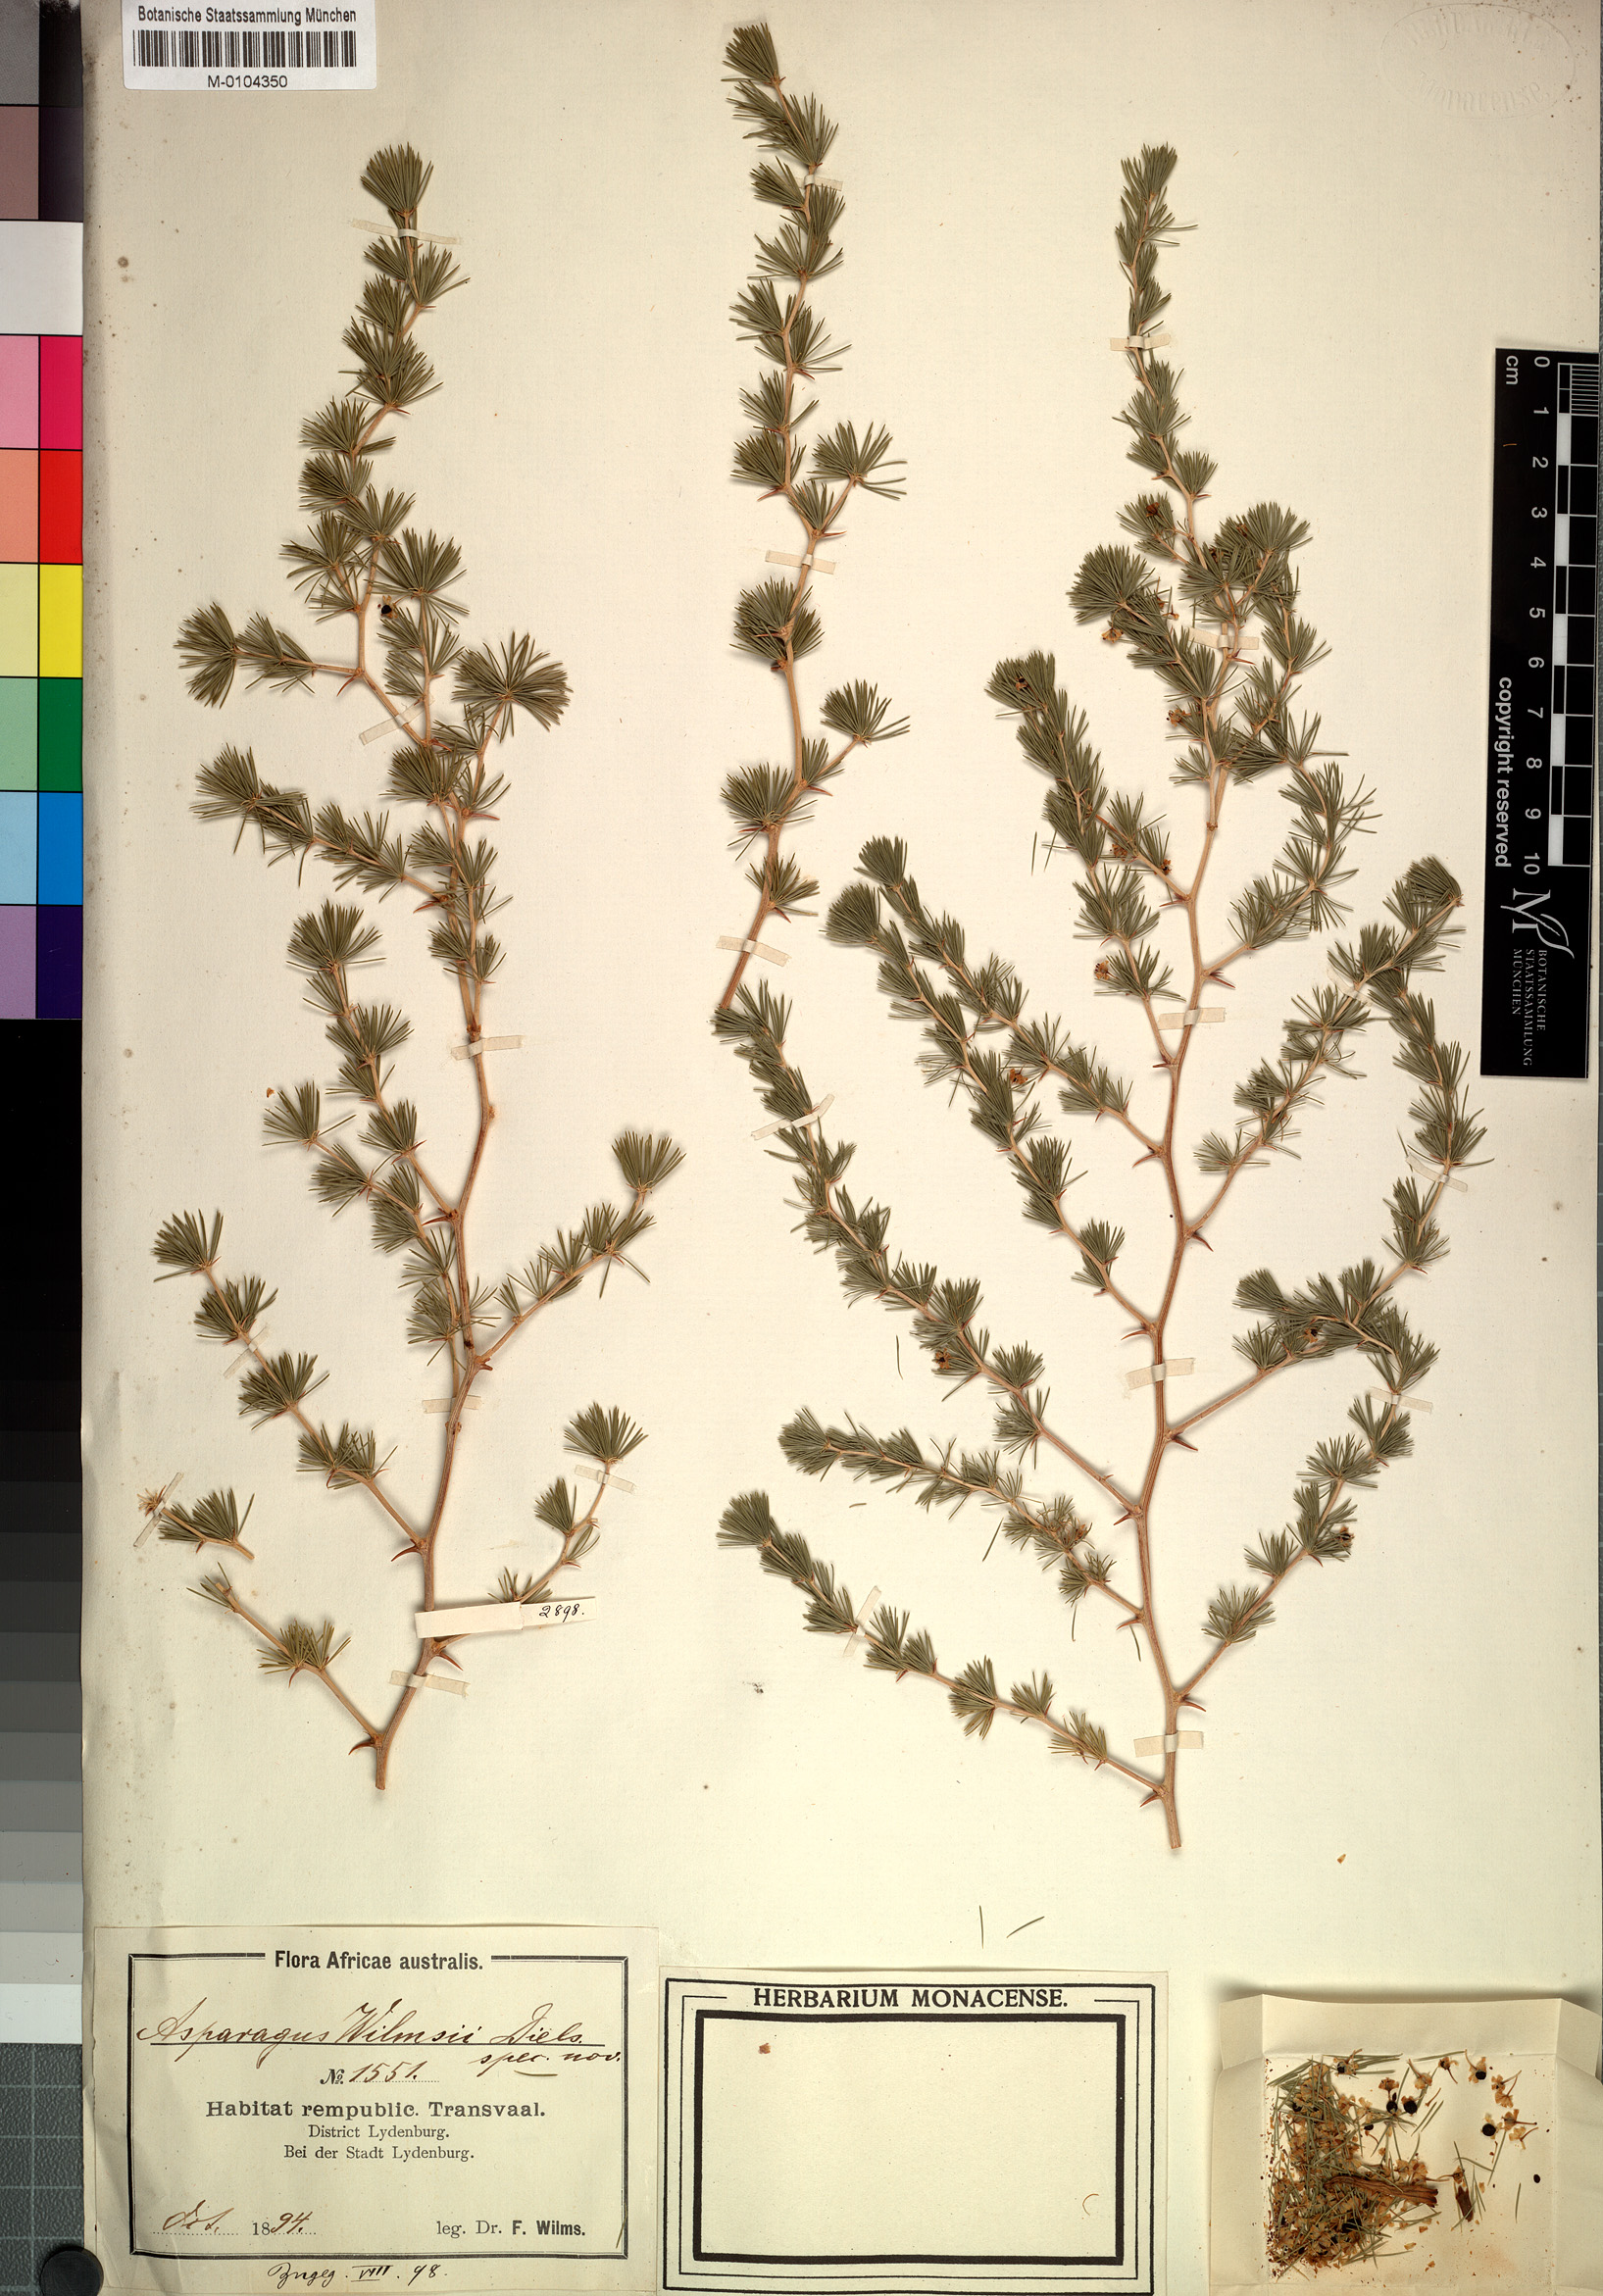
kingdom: Plantae
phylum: Tracheophyta
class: Liliopsida
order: Asparagales
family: Asparagaceae
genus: Asparagus
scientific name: Asparagus
